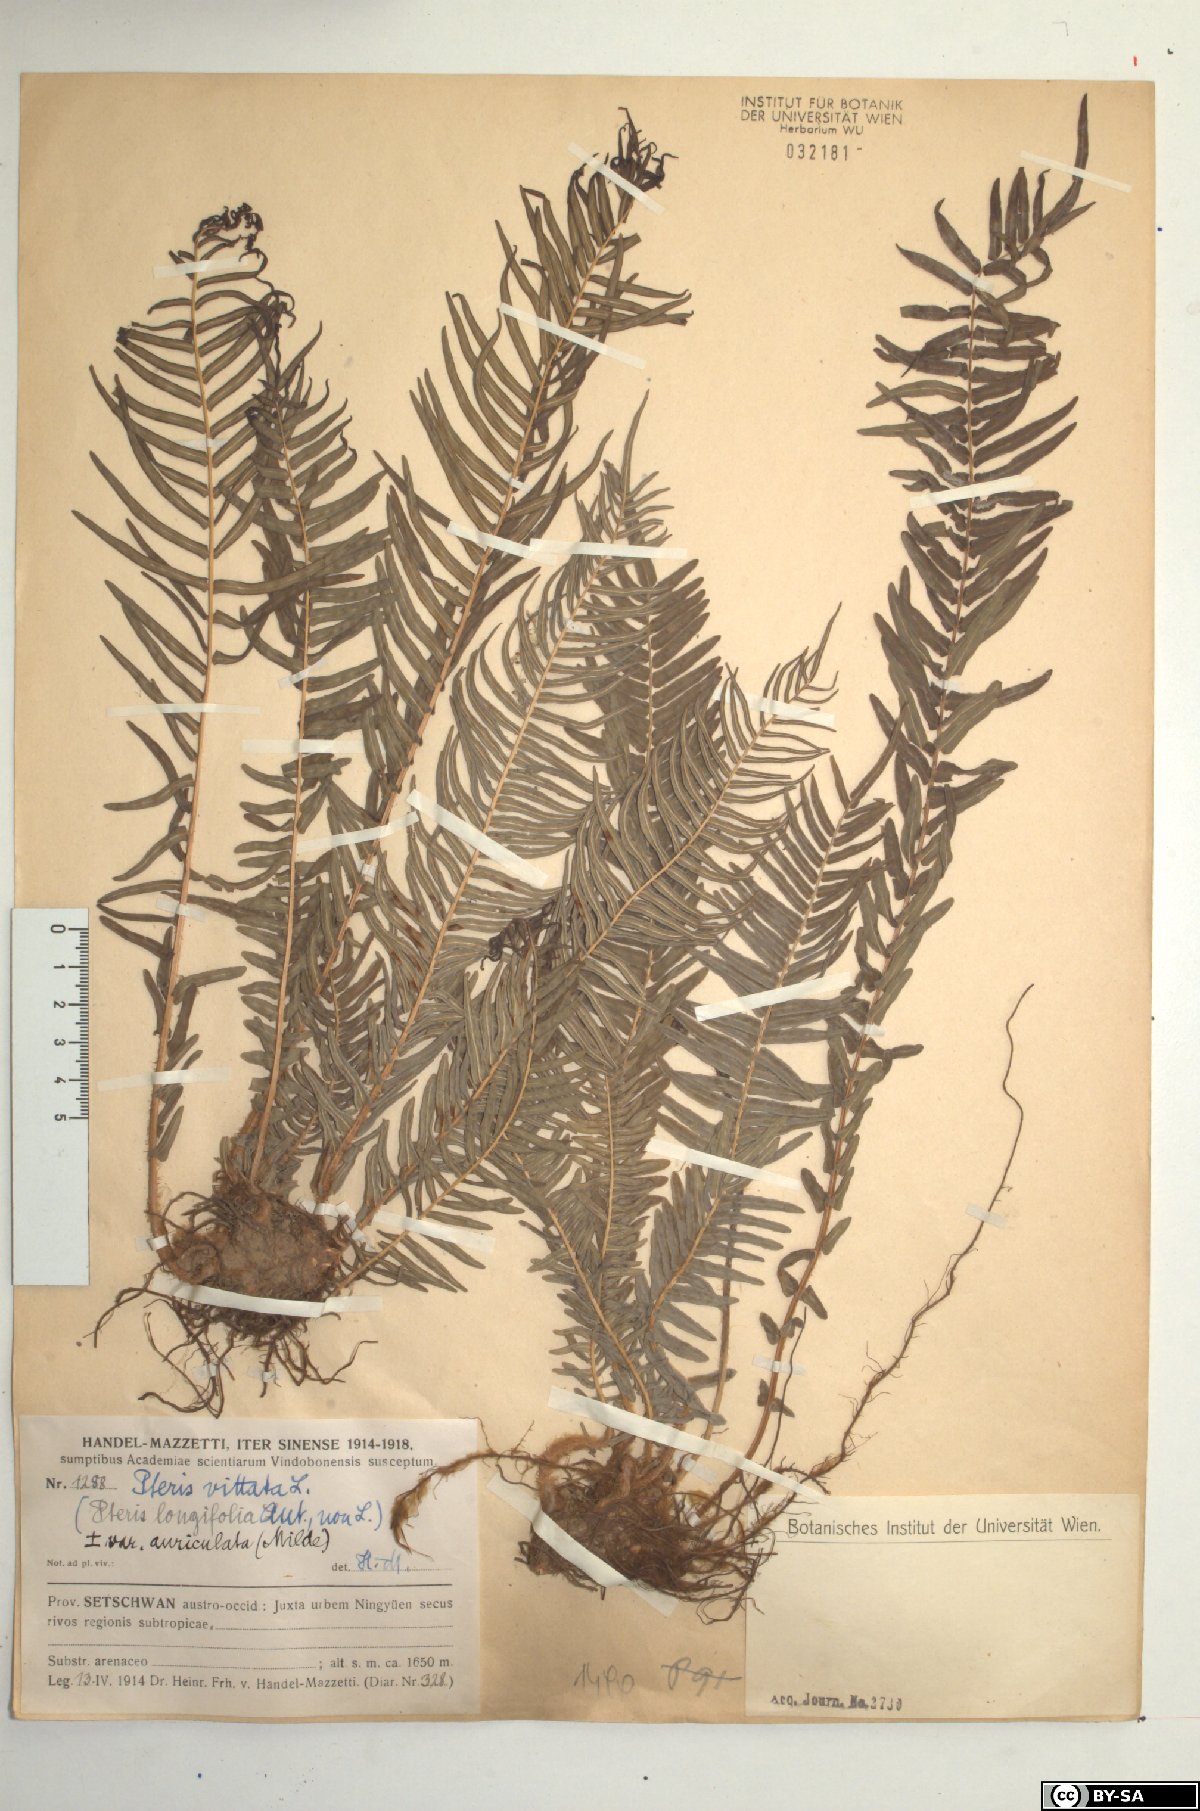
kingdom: Plantae
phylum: Tracheophyta
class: Polypodiopsida
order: Polypodiales
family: Pteridaceae
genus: Pteris
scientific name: Pteris vittata
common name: Ladder brake
